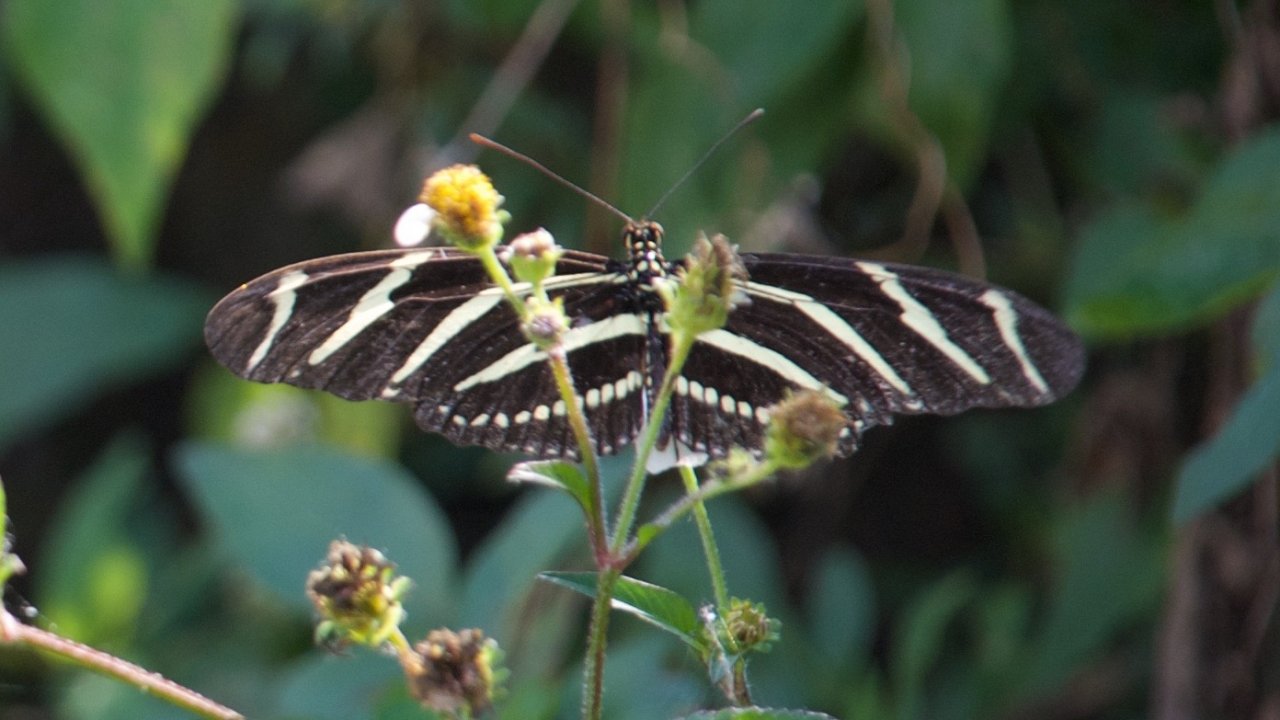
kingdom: Animalia
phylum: Arthropoda
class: Insecta
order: Lepidoptera
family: Nymphalidae
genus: Heliconius
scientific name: Heliconius charithonia
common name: Zebra Longwing
